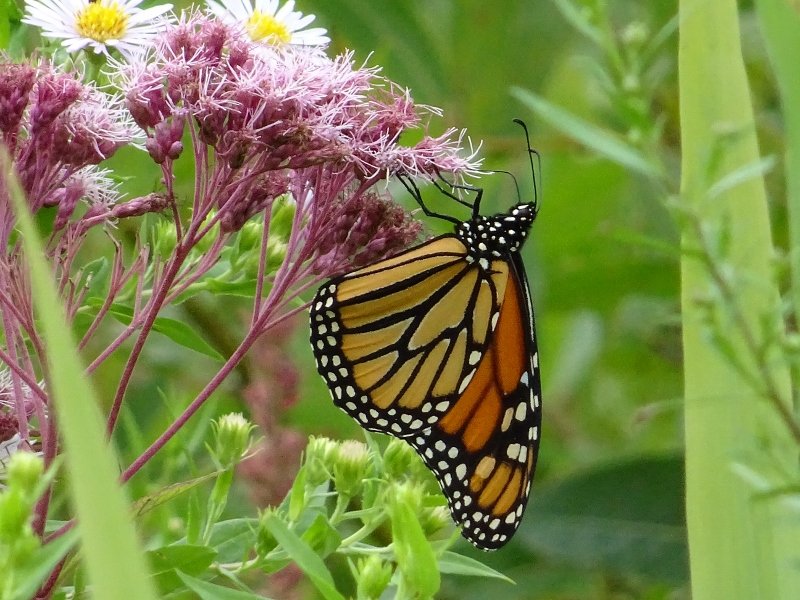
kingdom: Animalia
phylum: Arthropoda
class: Insecta
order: Lepidoptera
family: Nymphalidae
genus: Danaus
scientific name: Danaus plexippus
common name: Monarch
